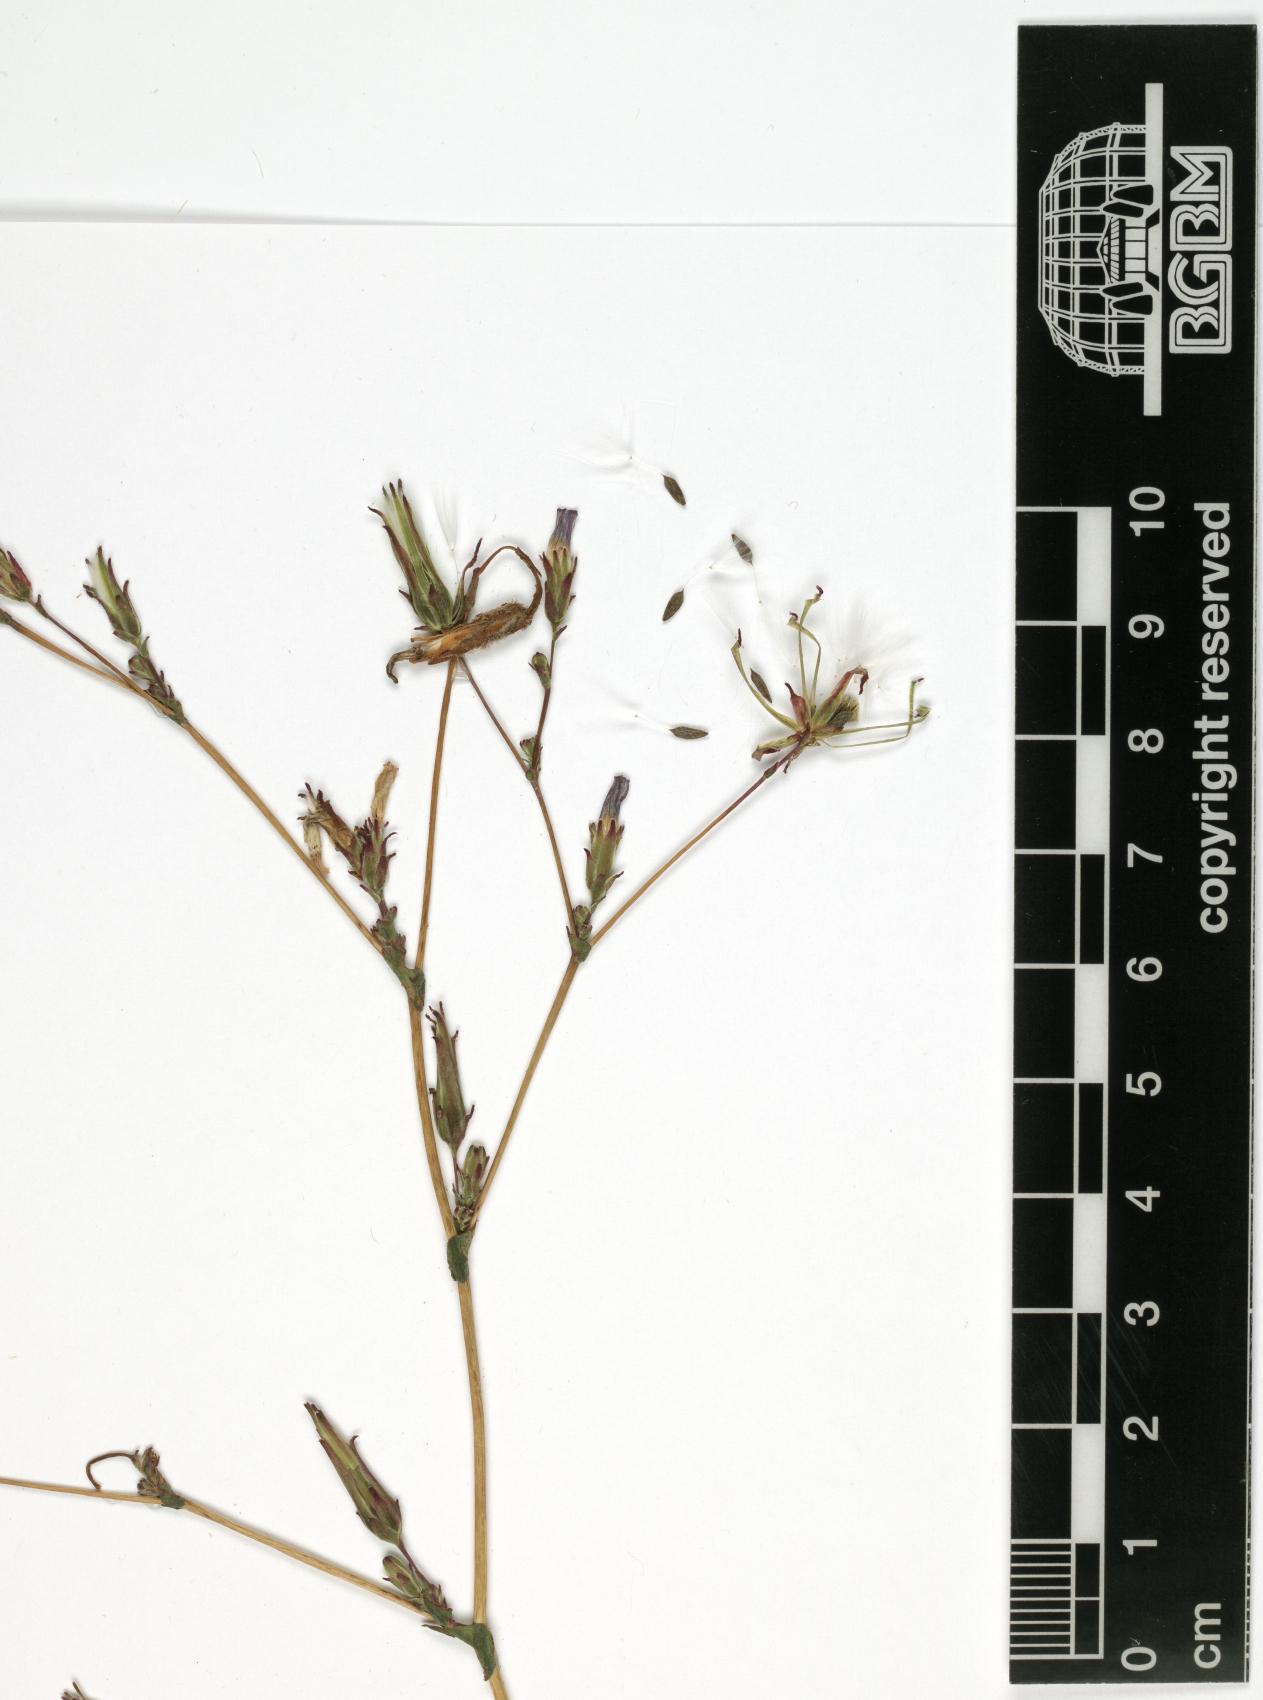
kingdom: Plantae
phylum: Tracheophyta
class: Magnoliopsida
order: Asterales
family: Asteraceae
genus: Lactuca
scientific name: Lactuca serriola
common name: Prickly lettuce
